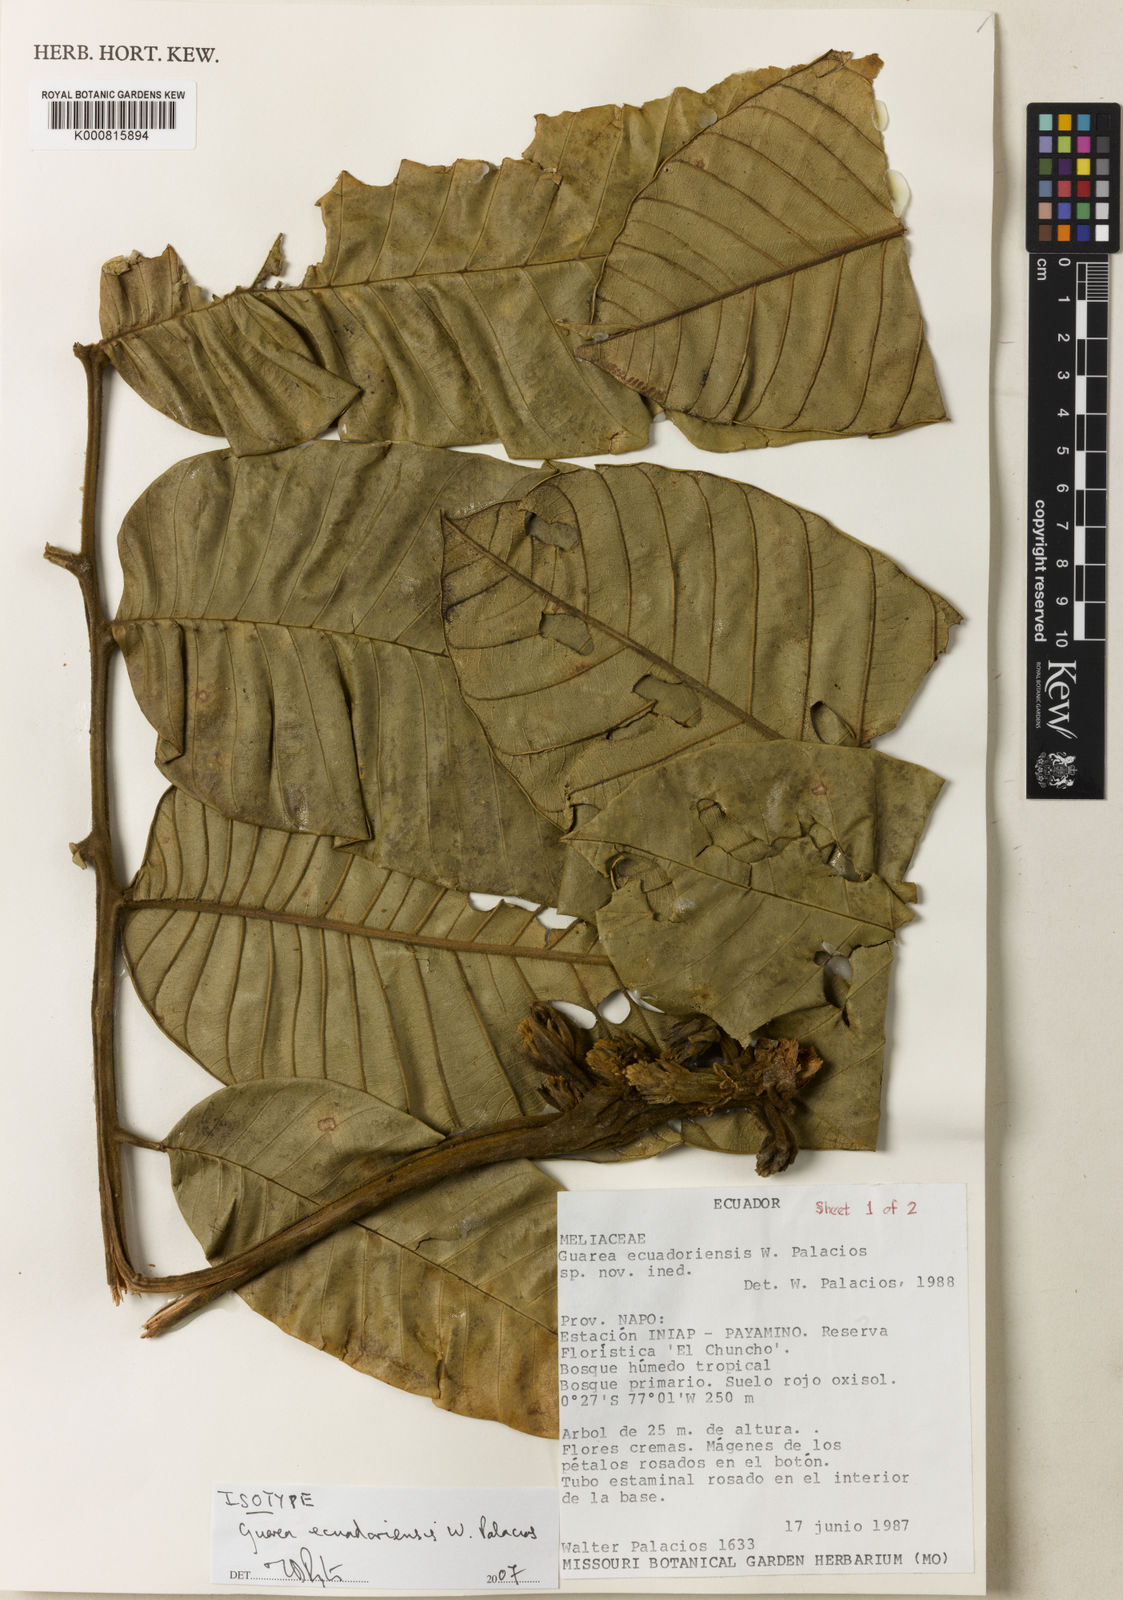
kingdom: Plantae
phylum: Tracheophyta
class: Magnoliopsida
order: Sapindales
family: Meliaceae
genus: Guarea
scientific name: Guarea ecuadoriensis
